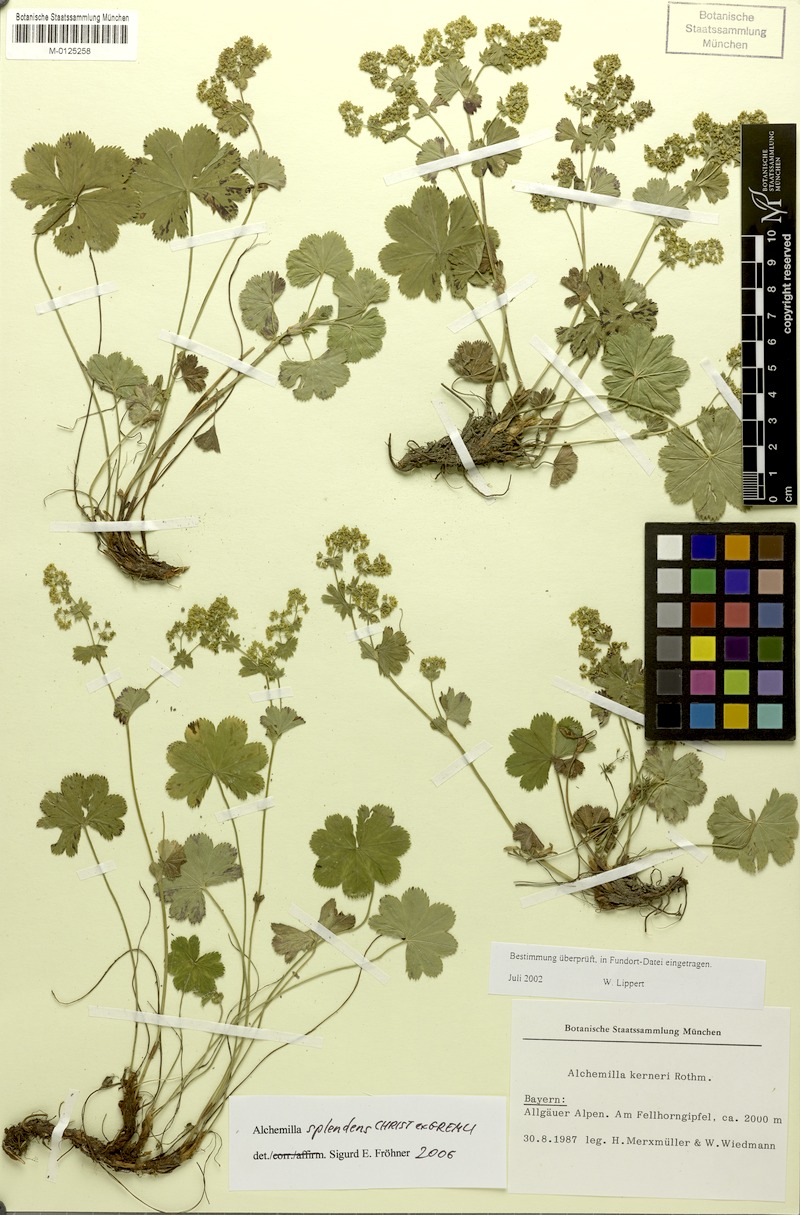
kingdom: Plantae
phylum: Tracheophyta
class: Magnoliopsida
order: Rosales
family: Rosaceae
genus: Alchemilla
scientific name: Alchemilla splendens
